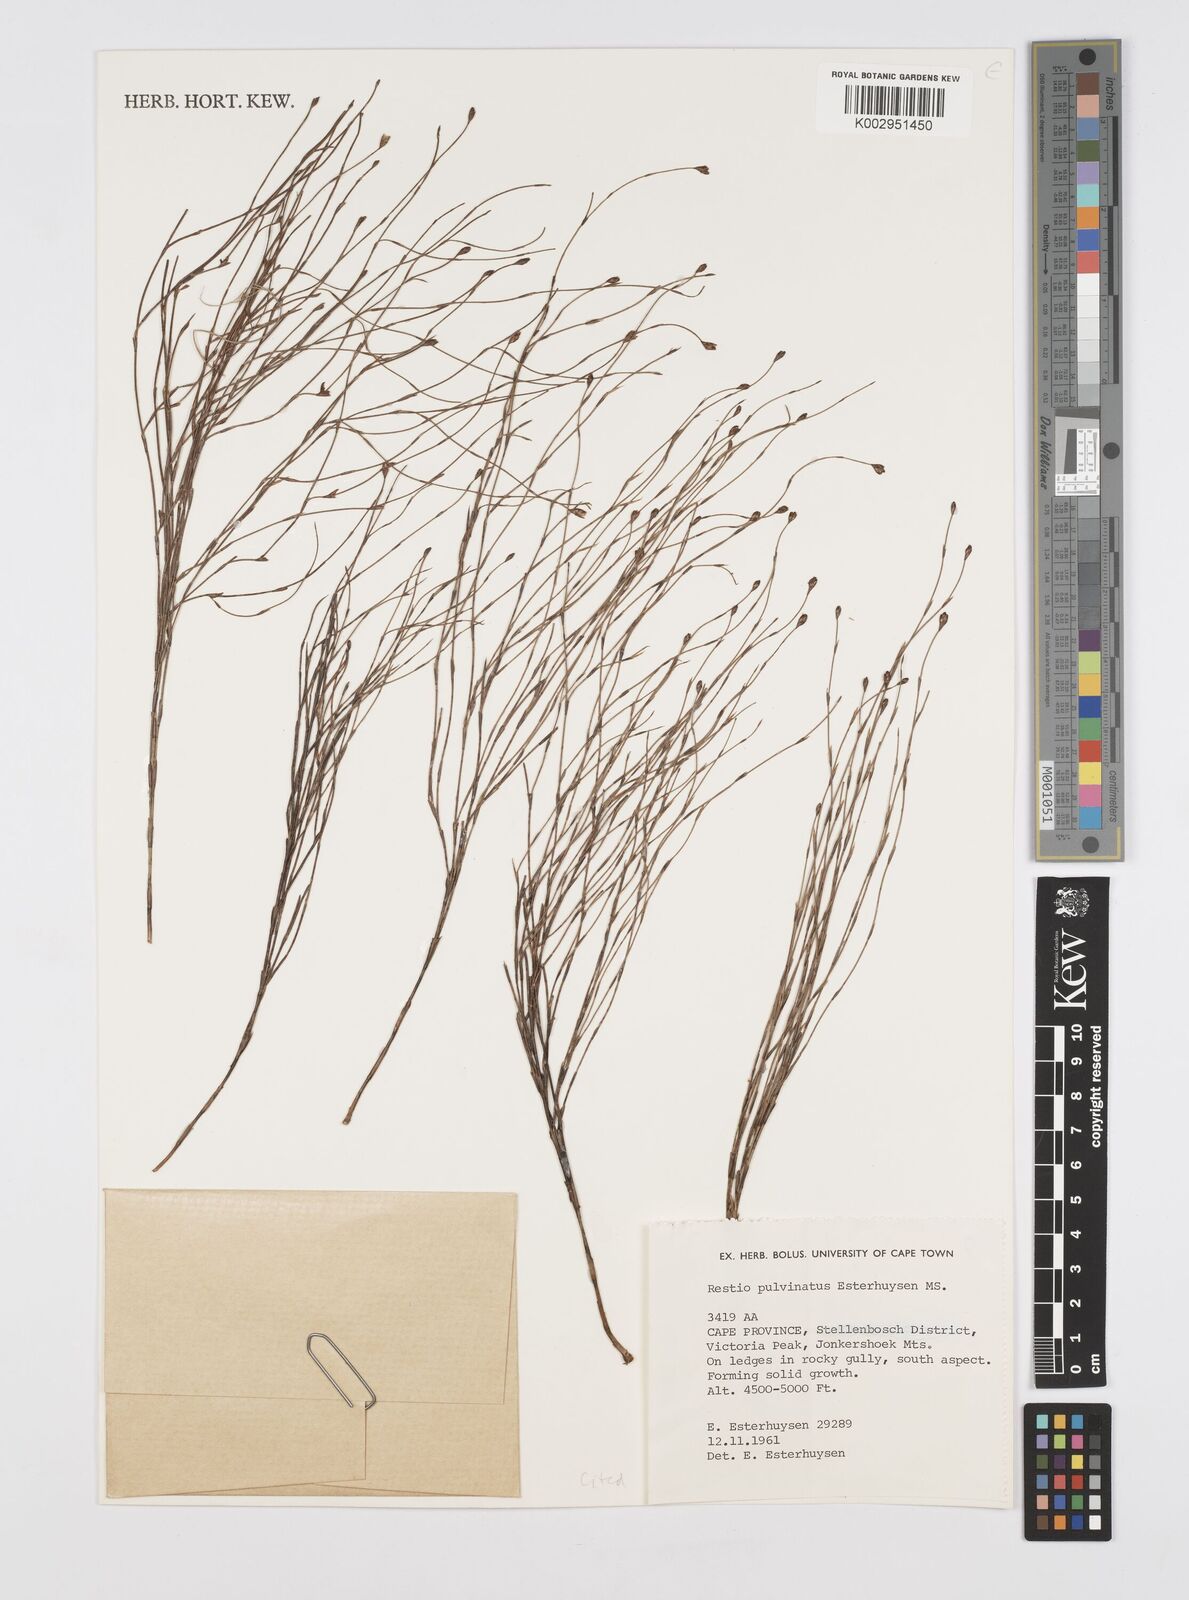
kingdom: Plantae
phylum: Tracheophyta
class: Liliopsida
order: Poales
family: Restionaceae
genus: Restio
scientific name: Restio pulvinatus
